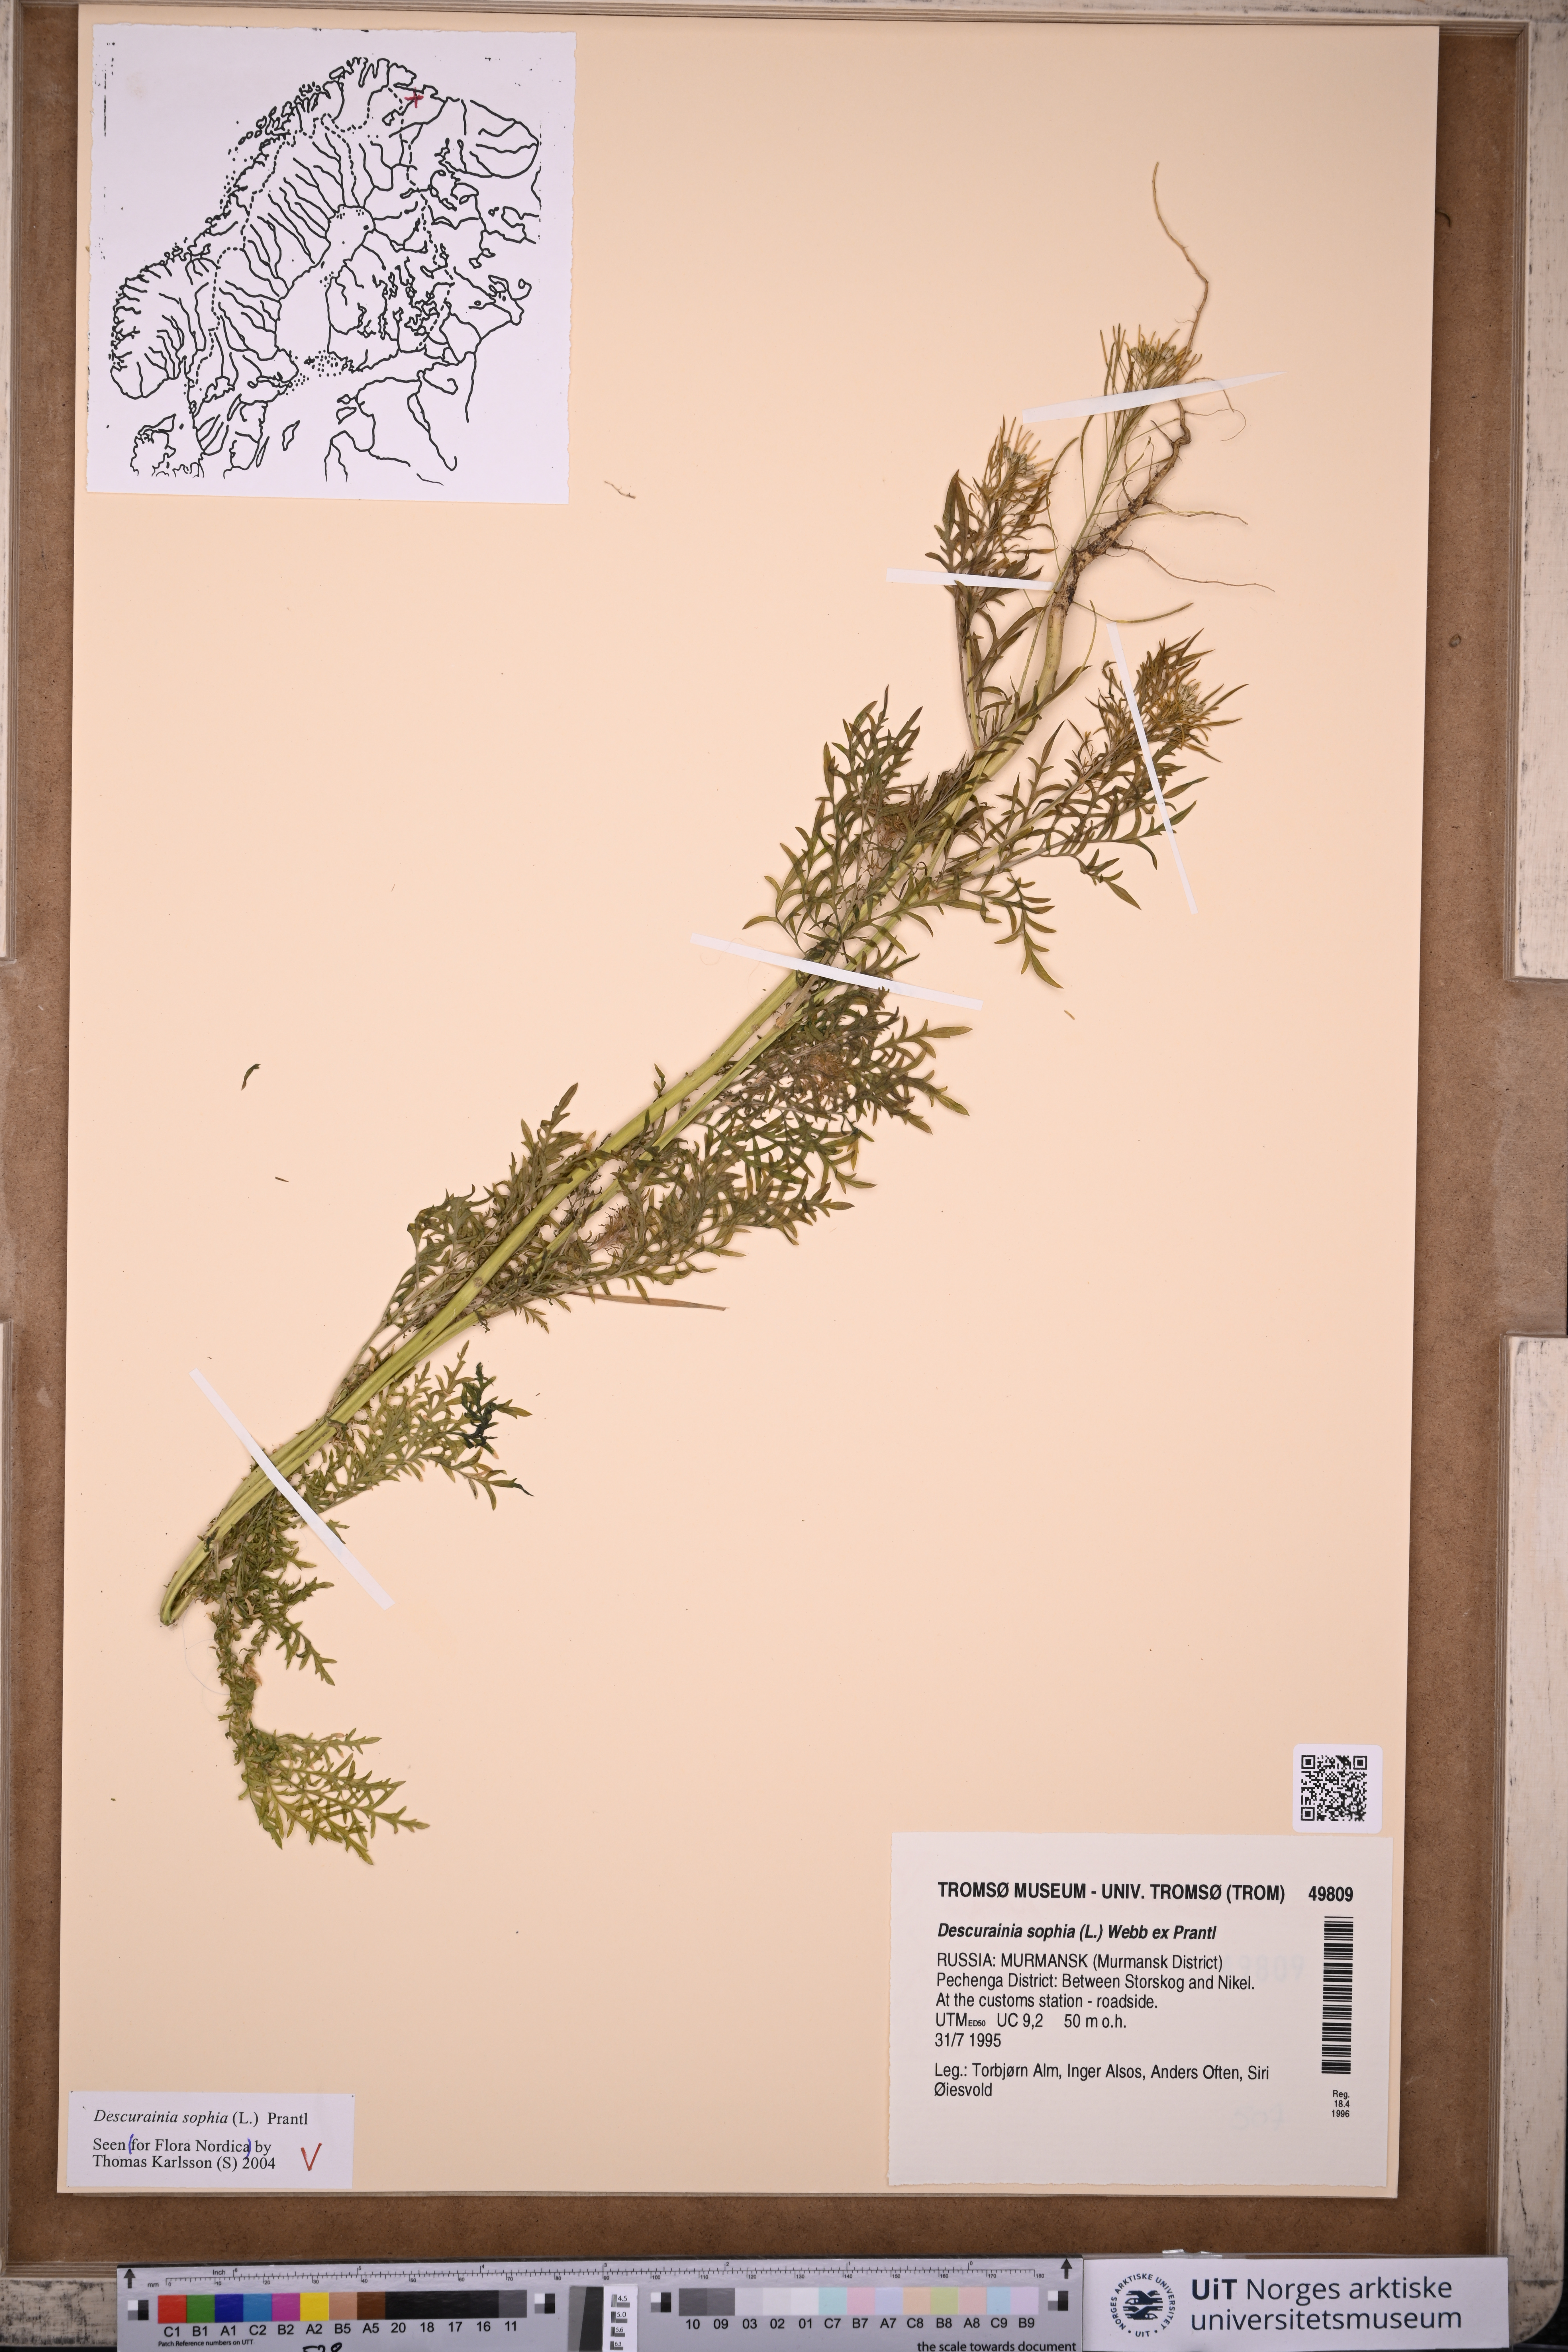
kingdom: Plantae
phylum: Tracheophyta
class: Magnoliopsida
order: Brassicales
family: Brassicaceae
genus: Descurainia
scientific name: Descurainia sophia
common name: Flixweed
